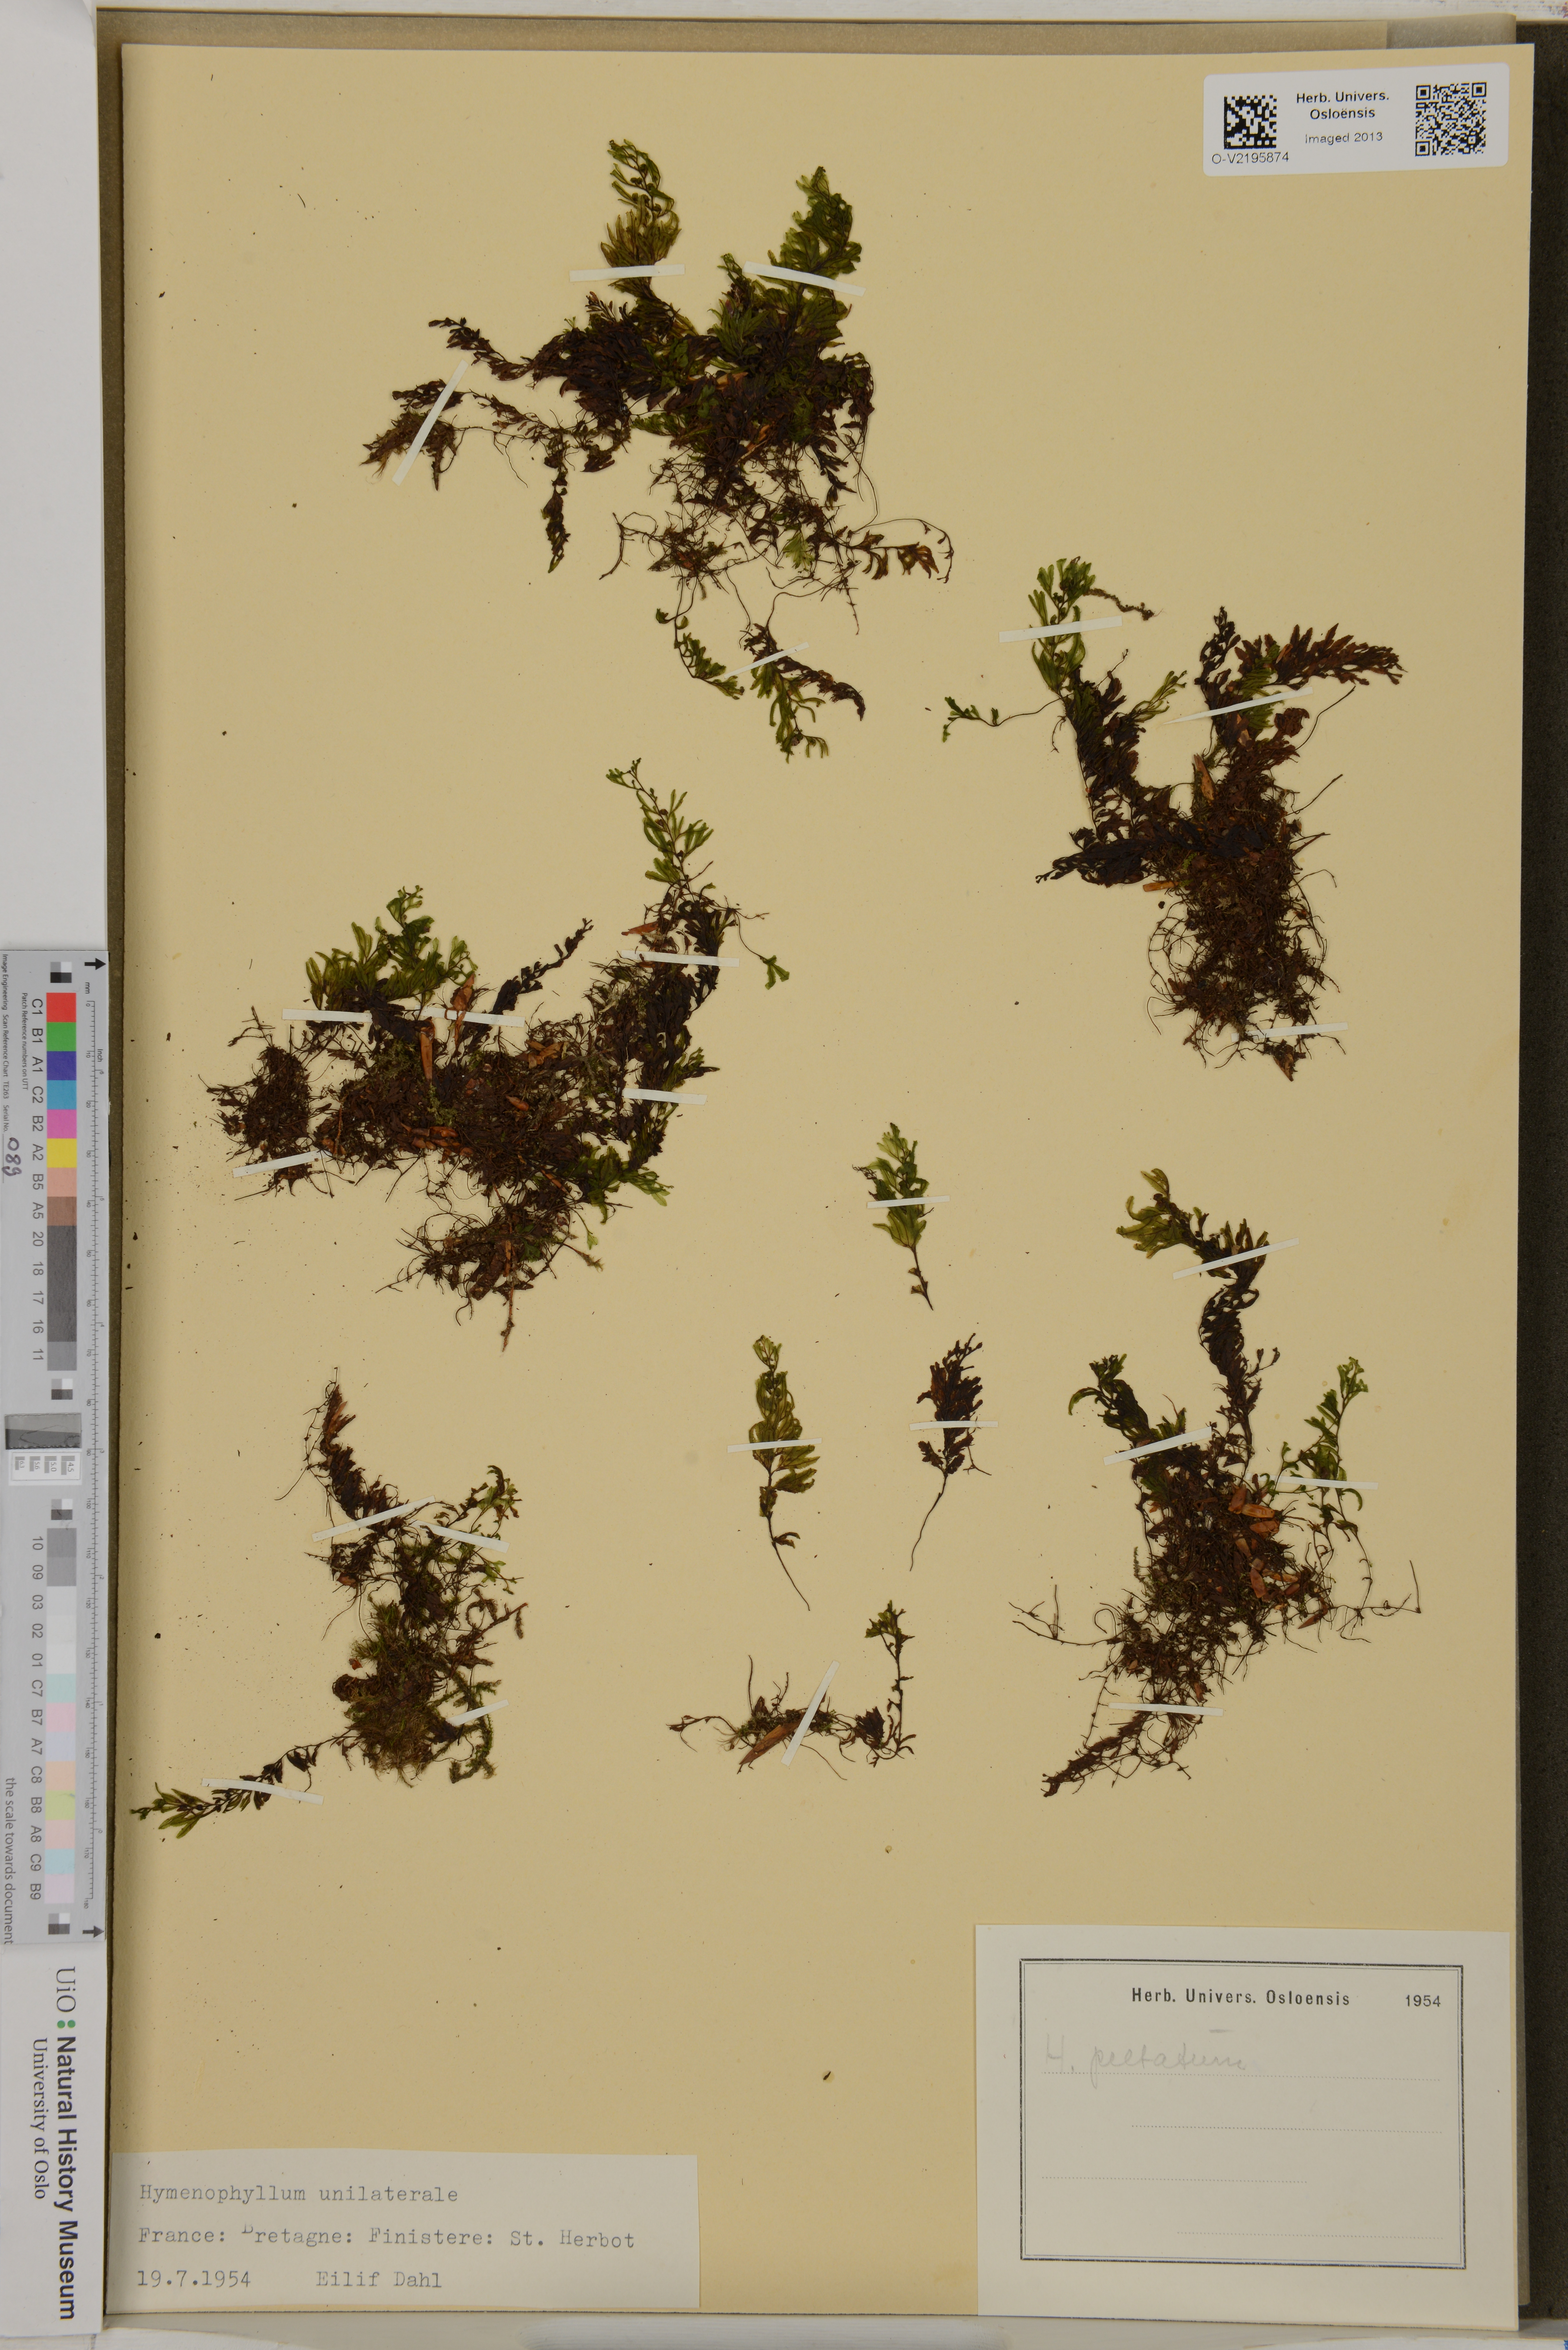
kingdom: Plantae
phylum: Tracheophyta
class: Polypodiopsida
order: Hymenophyllales
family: Hymenophyllaceae
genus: Hymenophyllum
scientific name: Hymenophyllum peltatum
